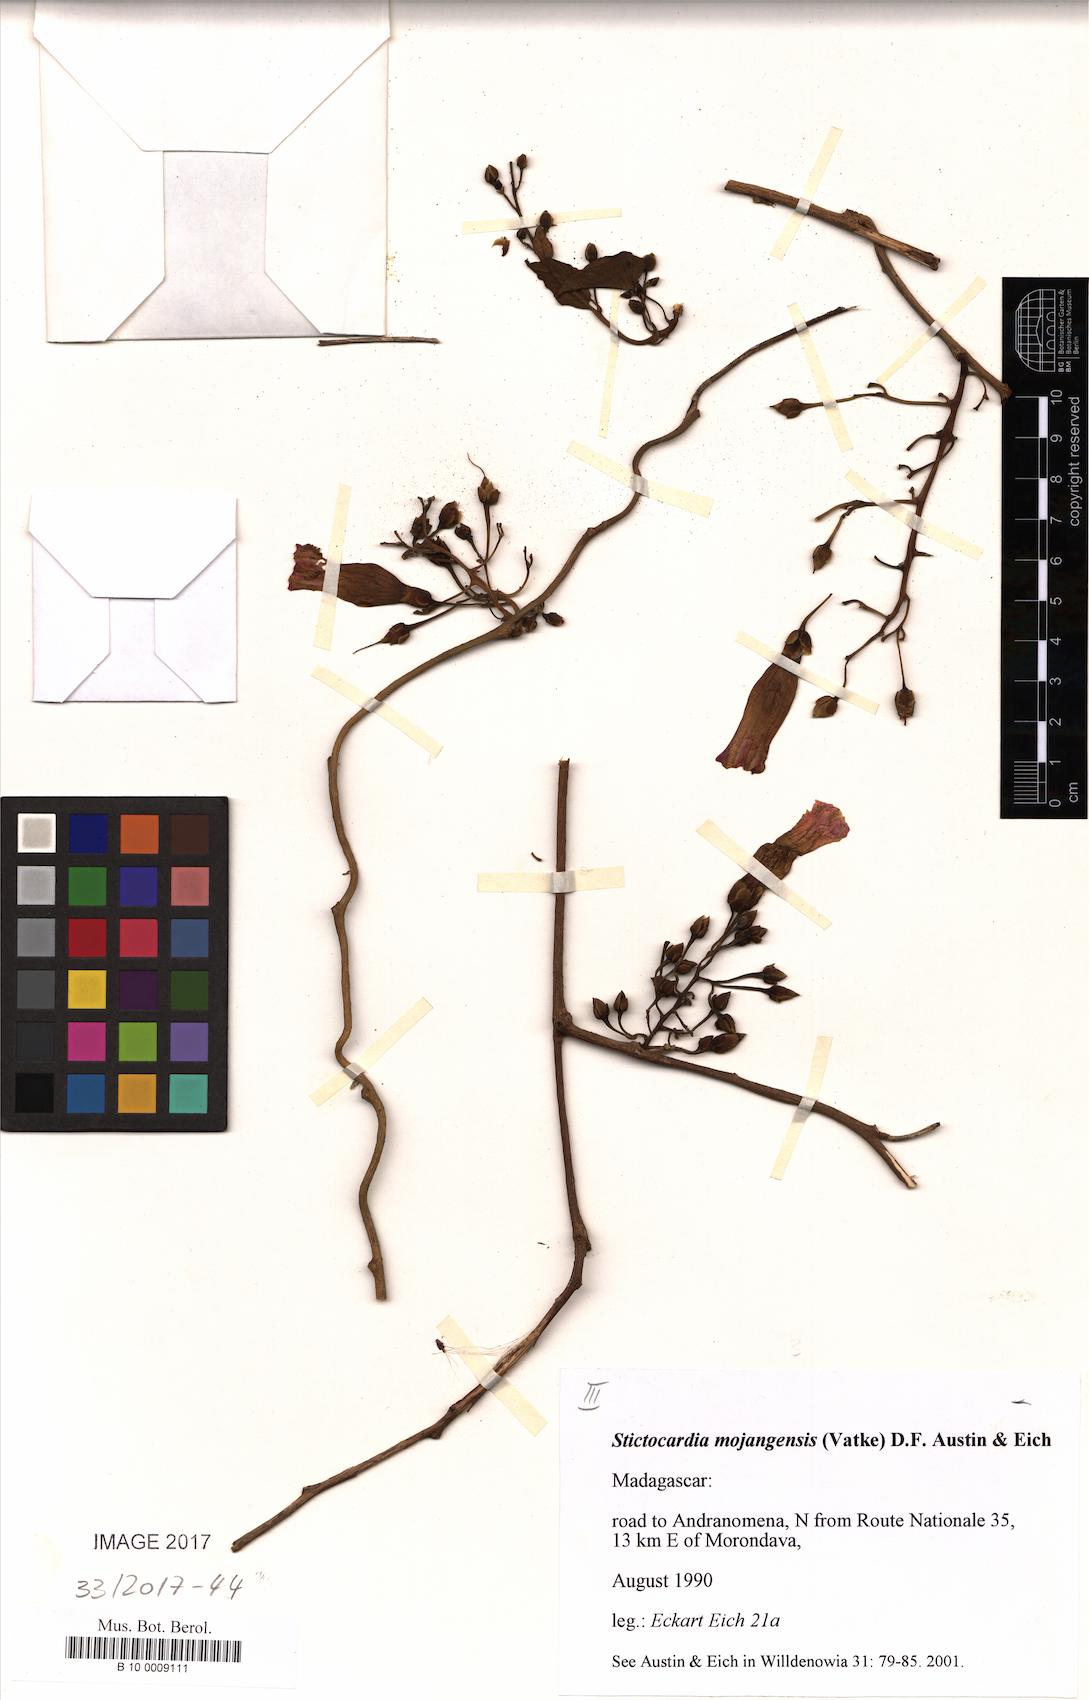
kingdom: Plantae
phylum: Tracheophyta
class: Magnoliopsida
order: Solanales
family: Convolvulaceae
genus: Stictocardia
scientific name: Stictocardia mojangensis
